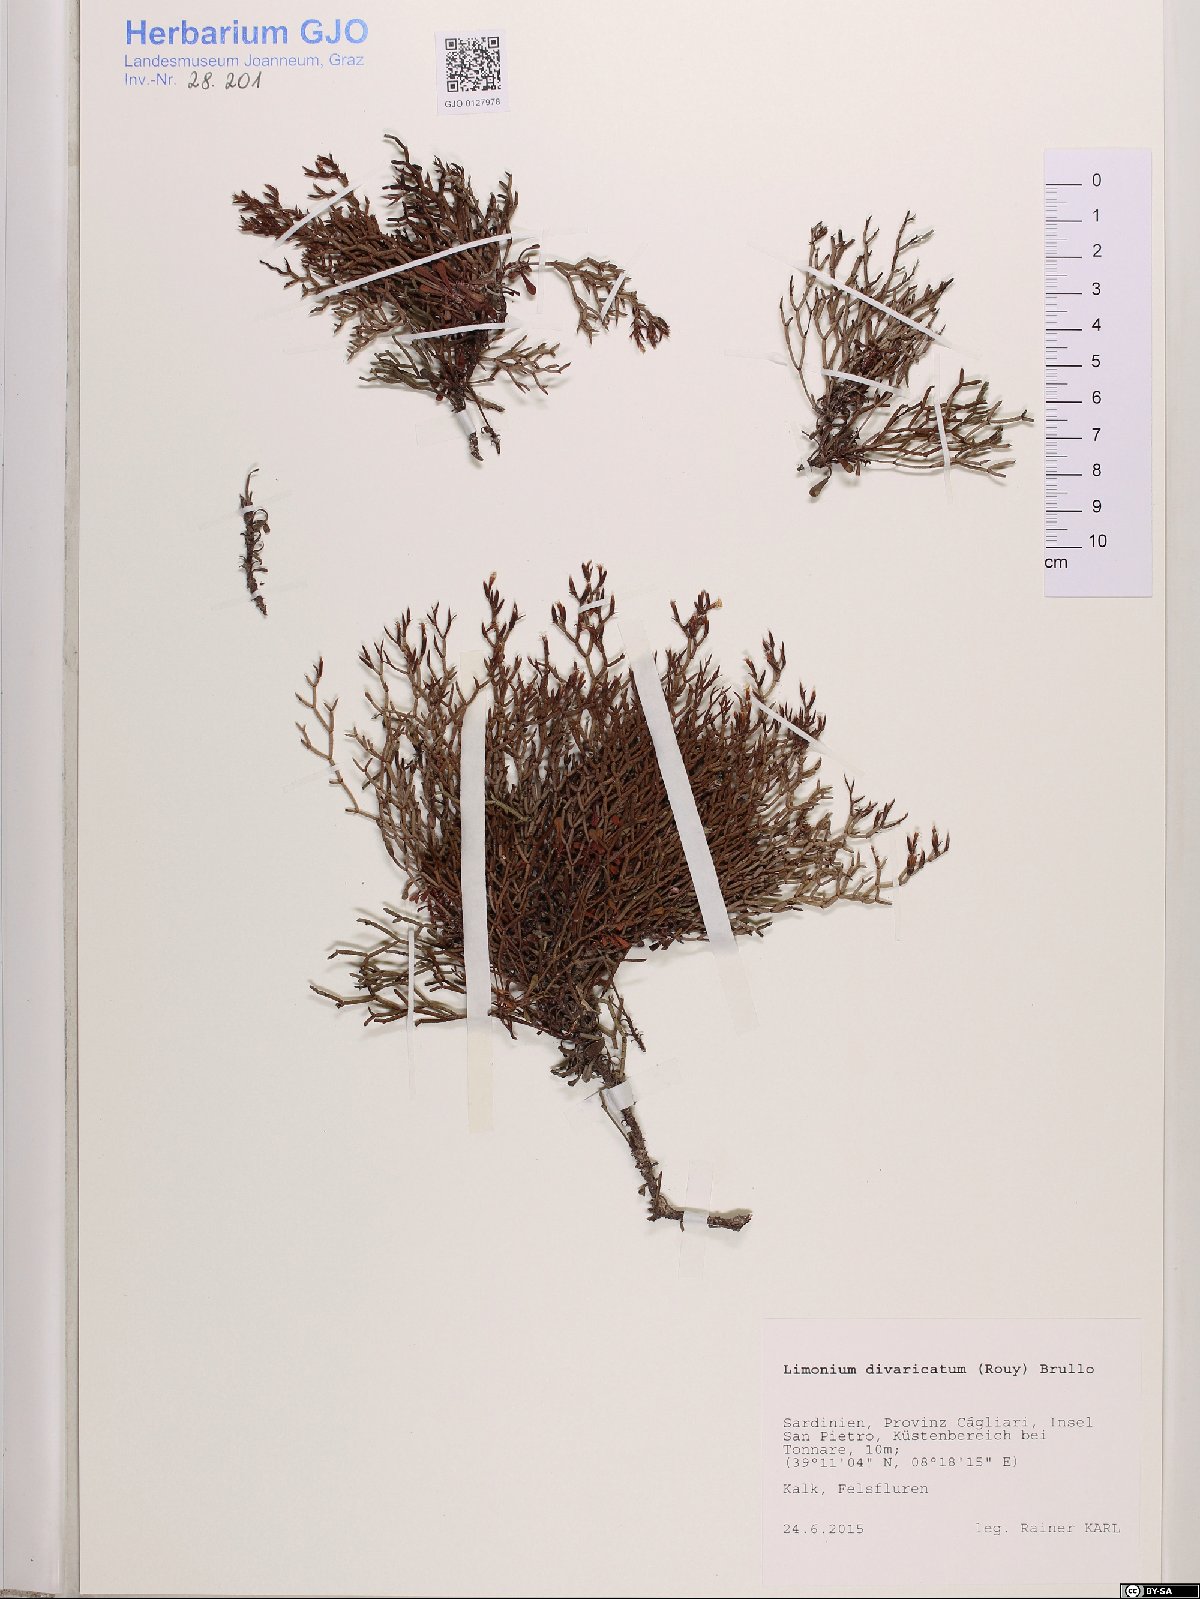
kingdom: Plantae
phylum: Tracheophyta
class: Magnoliopsida
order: Caryophyllales
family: Plumbaginaceae
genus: Limonium
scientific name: Limonium divaricatum
